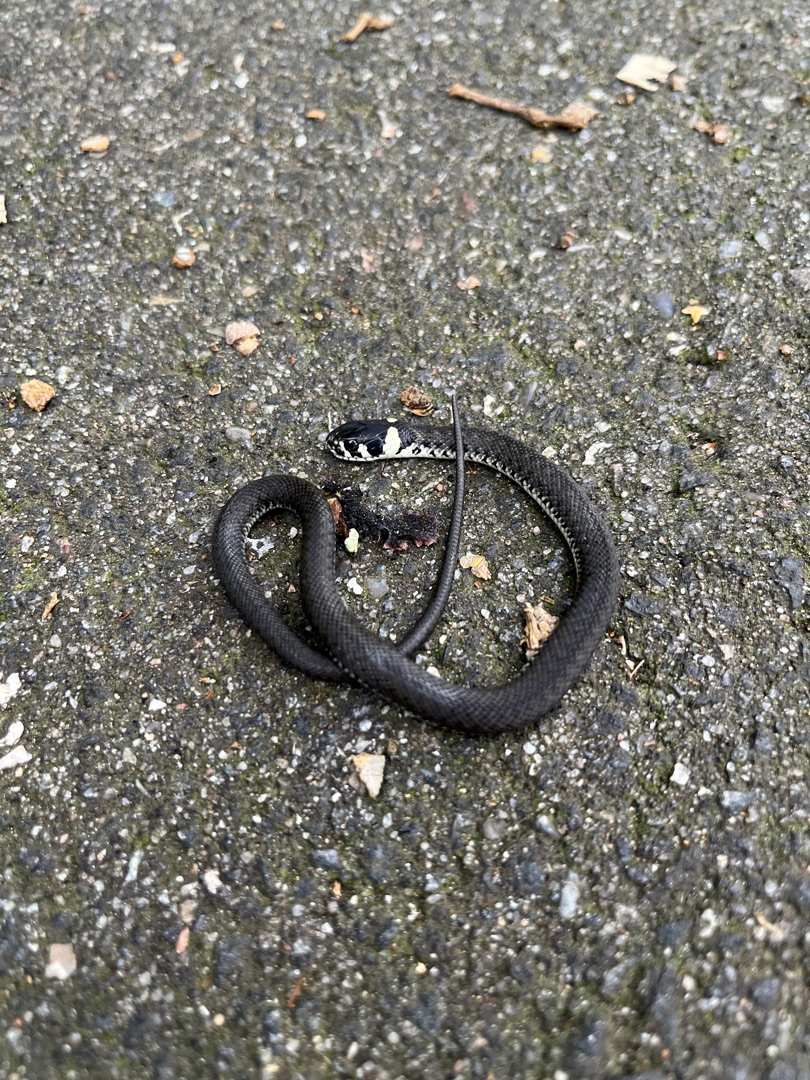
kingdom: Animalia
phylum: Chordata
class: Squamata
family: Colubridae
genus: Natrix
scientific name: Natrix natrix
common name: Snog
